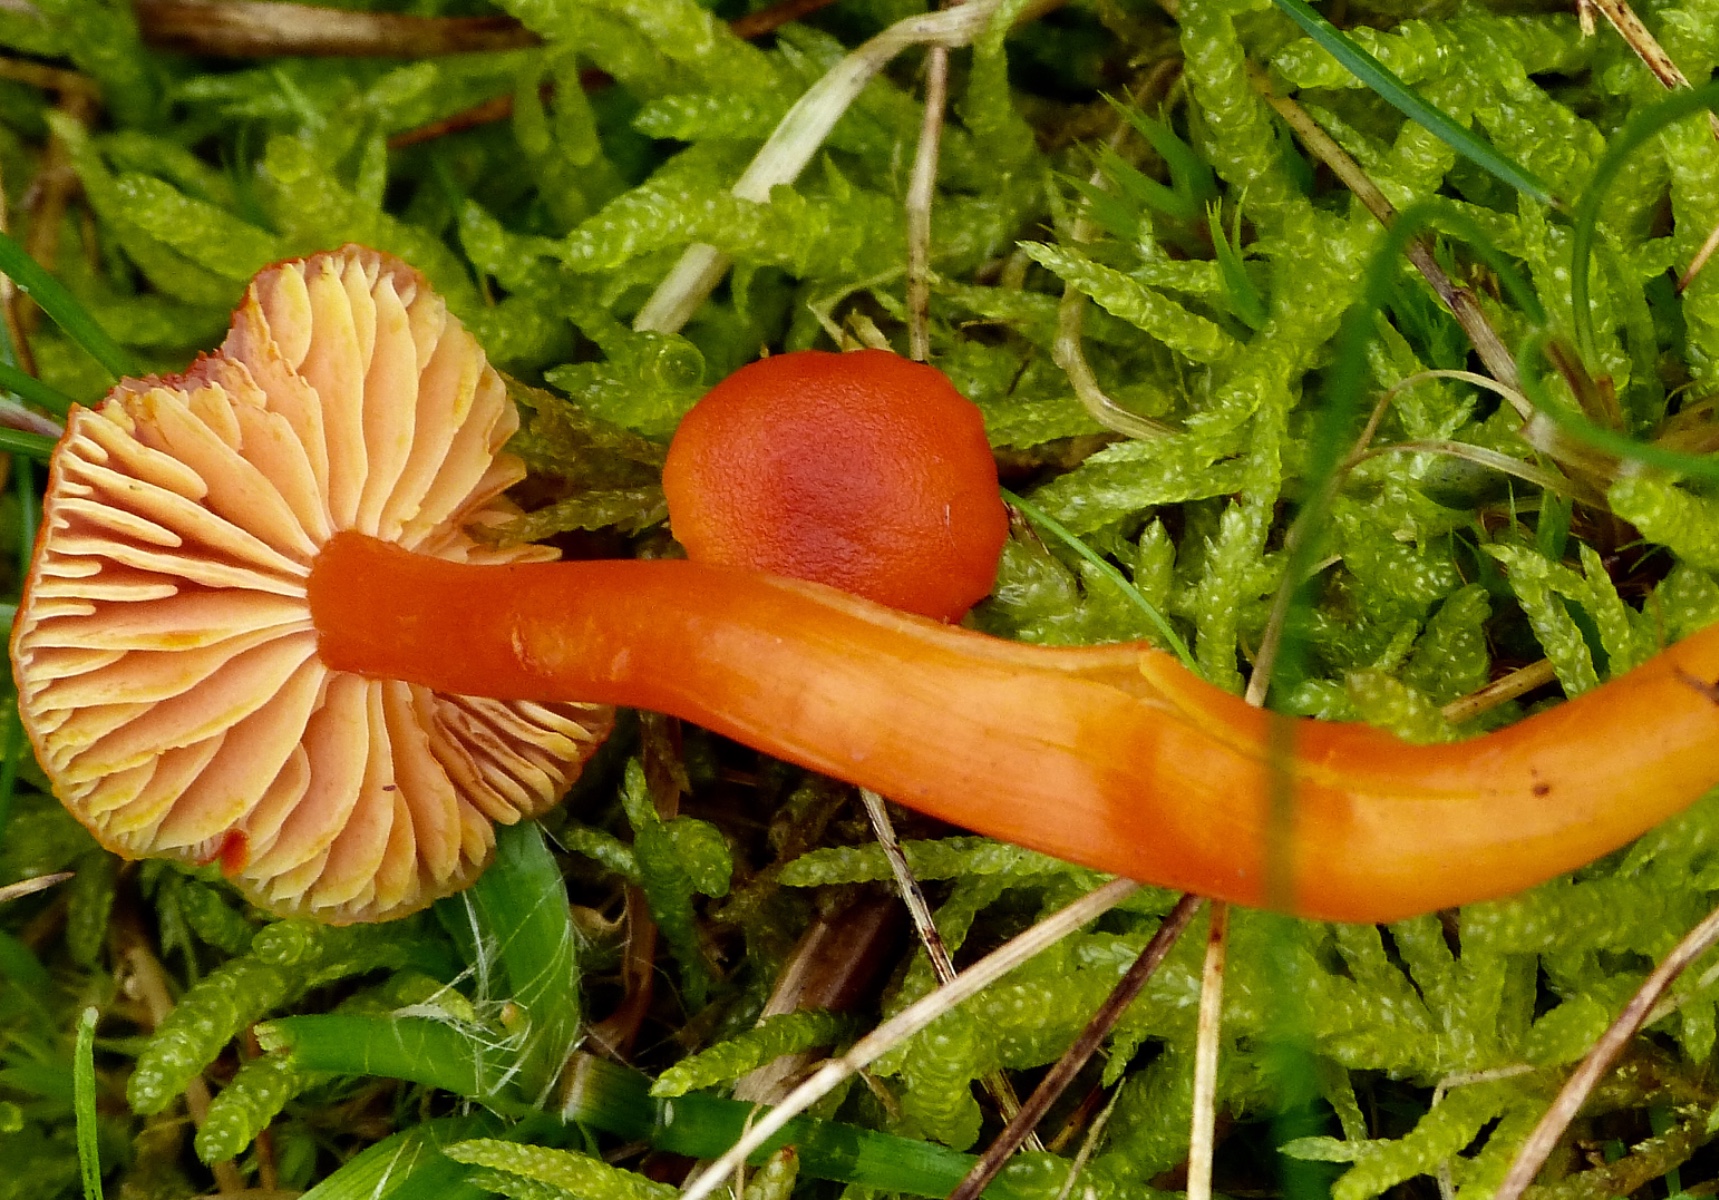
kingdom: Fungi
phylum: Basidiomycota
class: Agaricomycetes
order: Agaricales
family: Hygrophoraceae
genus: Hygrocybe
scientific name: Hygrocybe miniata
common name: mønje-vokshat
